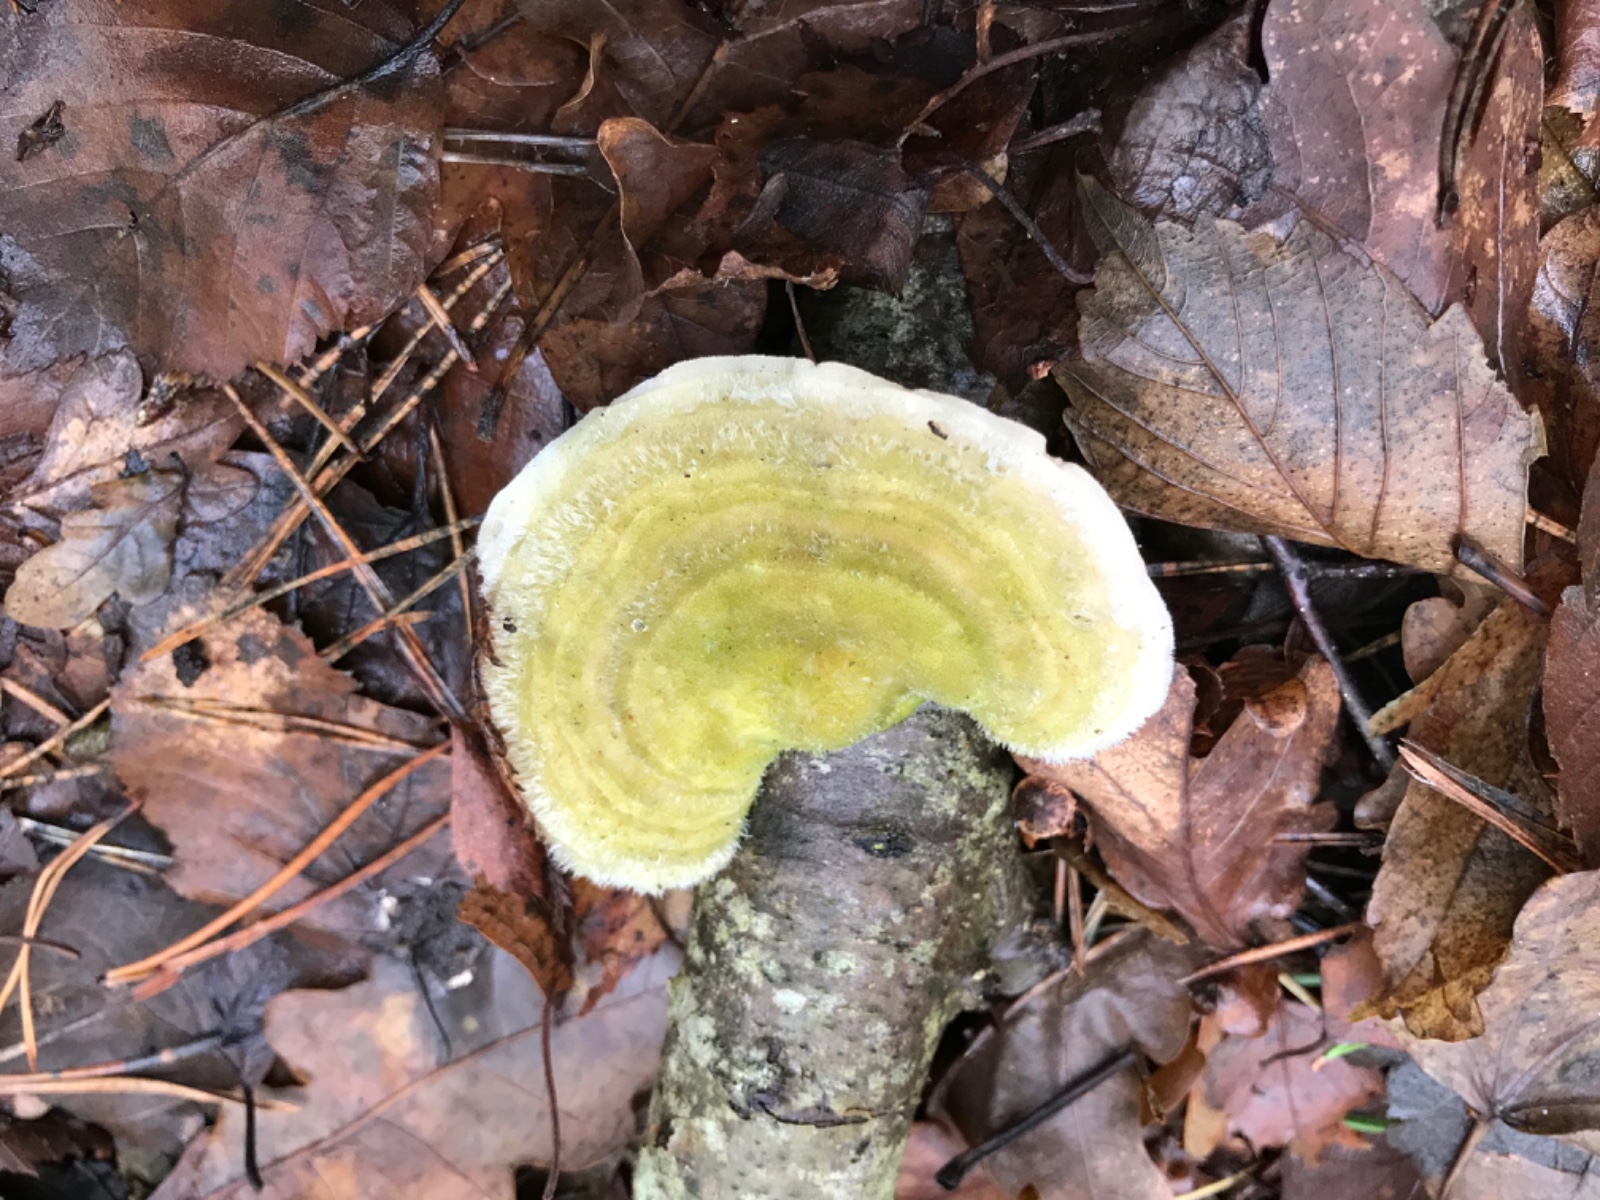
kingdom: Fungi
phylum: Basidiomycota
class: Agaricomycetes
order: Polyporales
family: Polyporaceae
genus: Trametes
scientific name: Trametes hirsuta
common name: håret læderporesvamp
